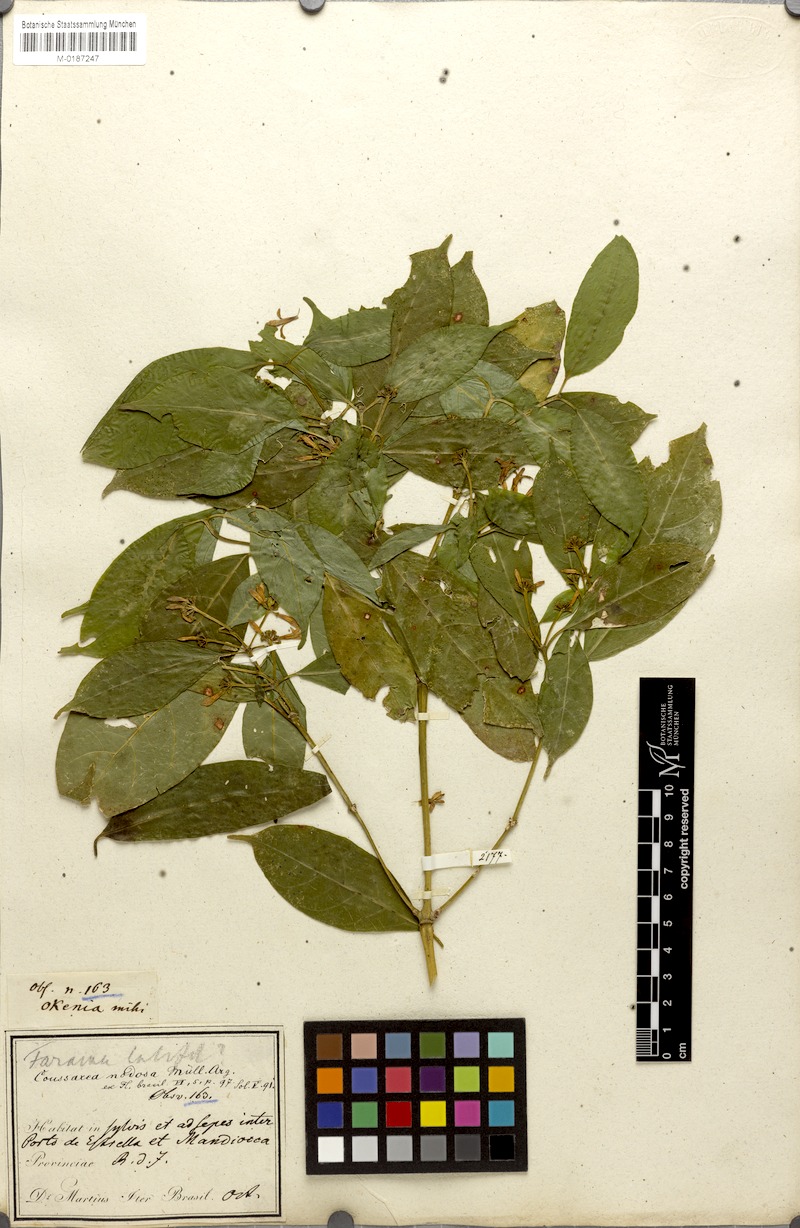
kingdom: Plantae
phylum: Tracheophyta
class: Magnoliopsida
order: Gentianales
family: Rubiaceae
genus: Coussarea
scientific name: Coussarea nodosa
